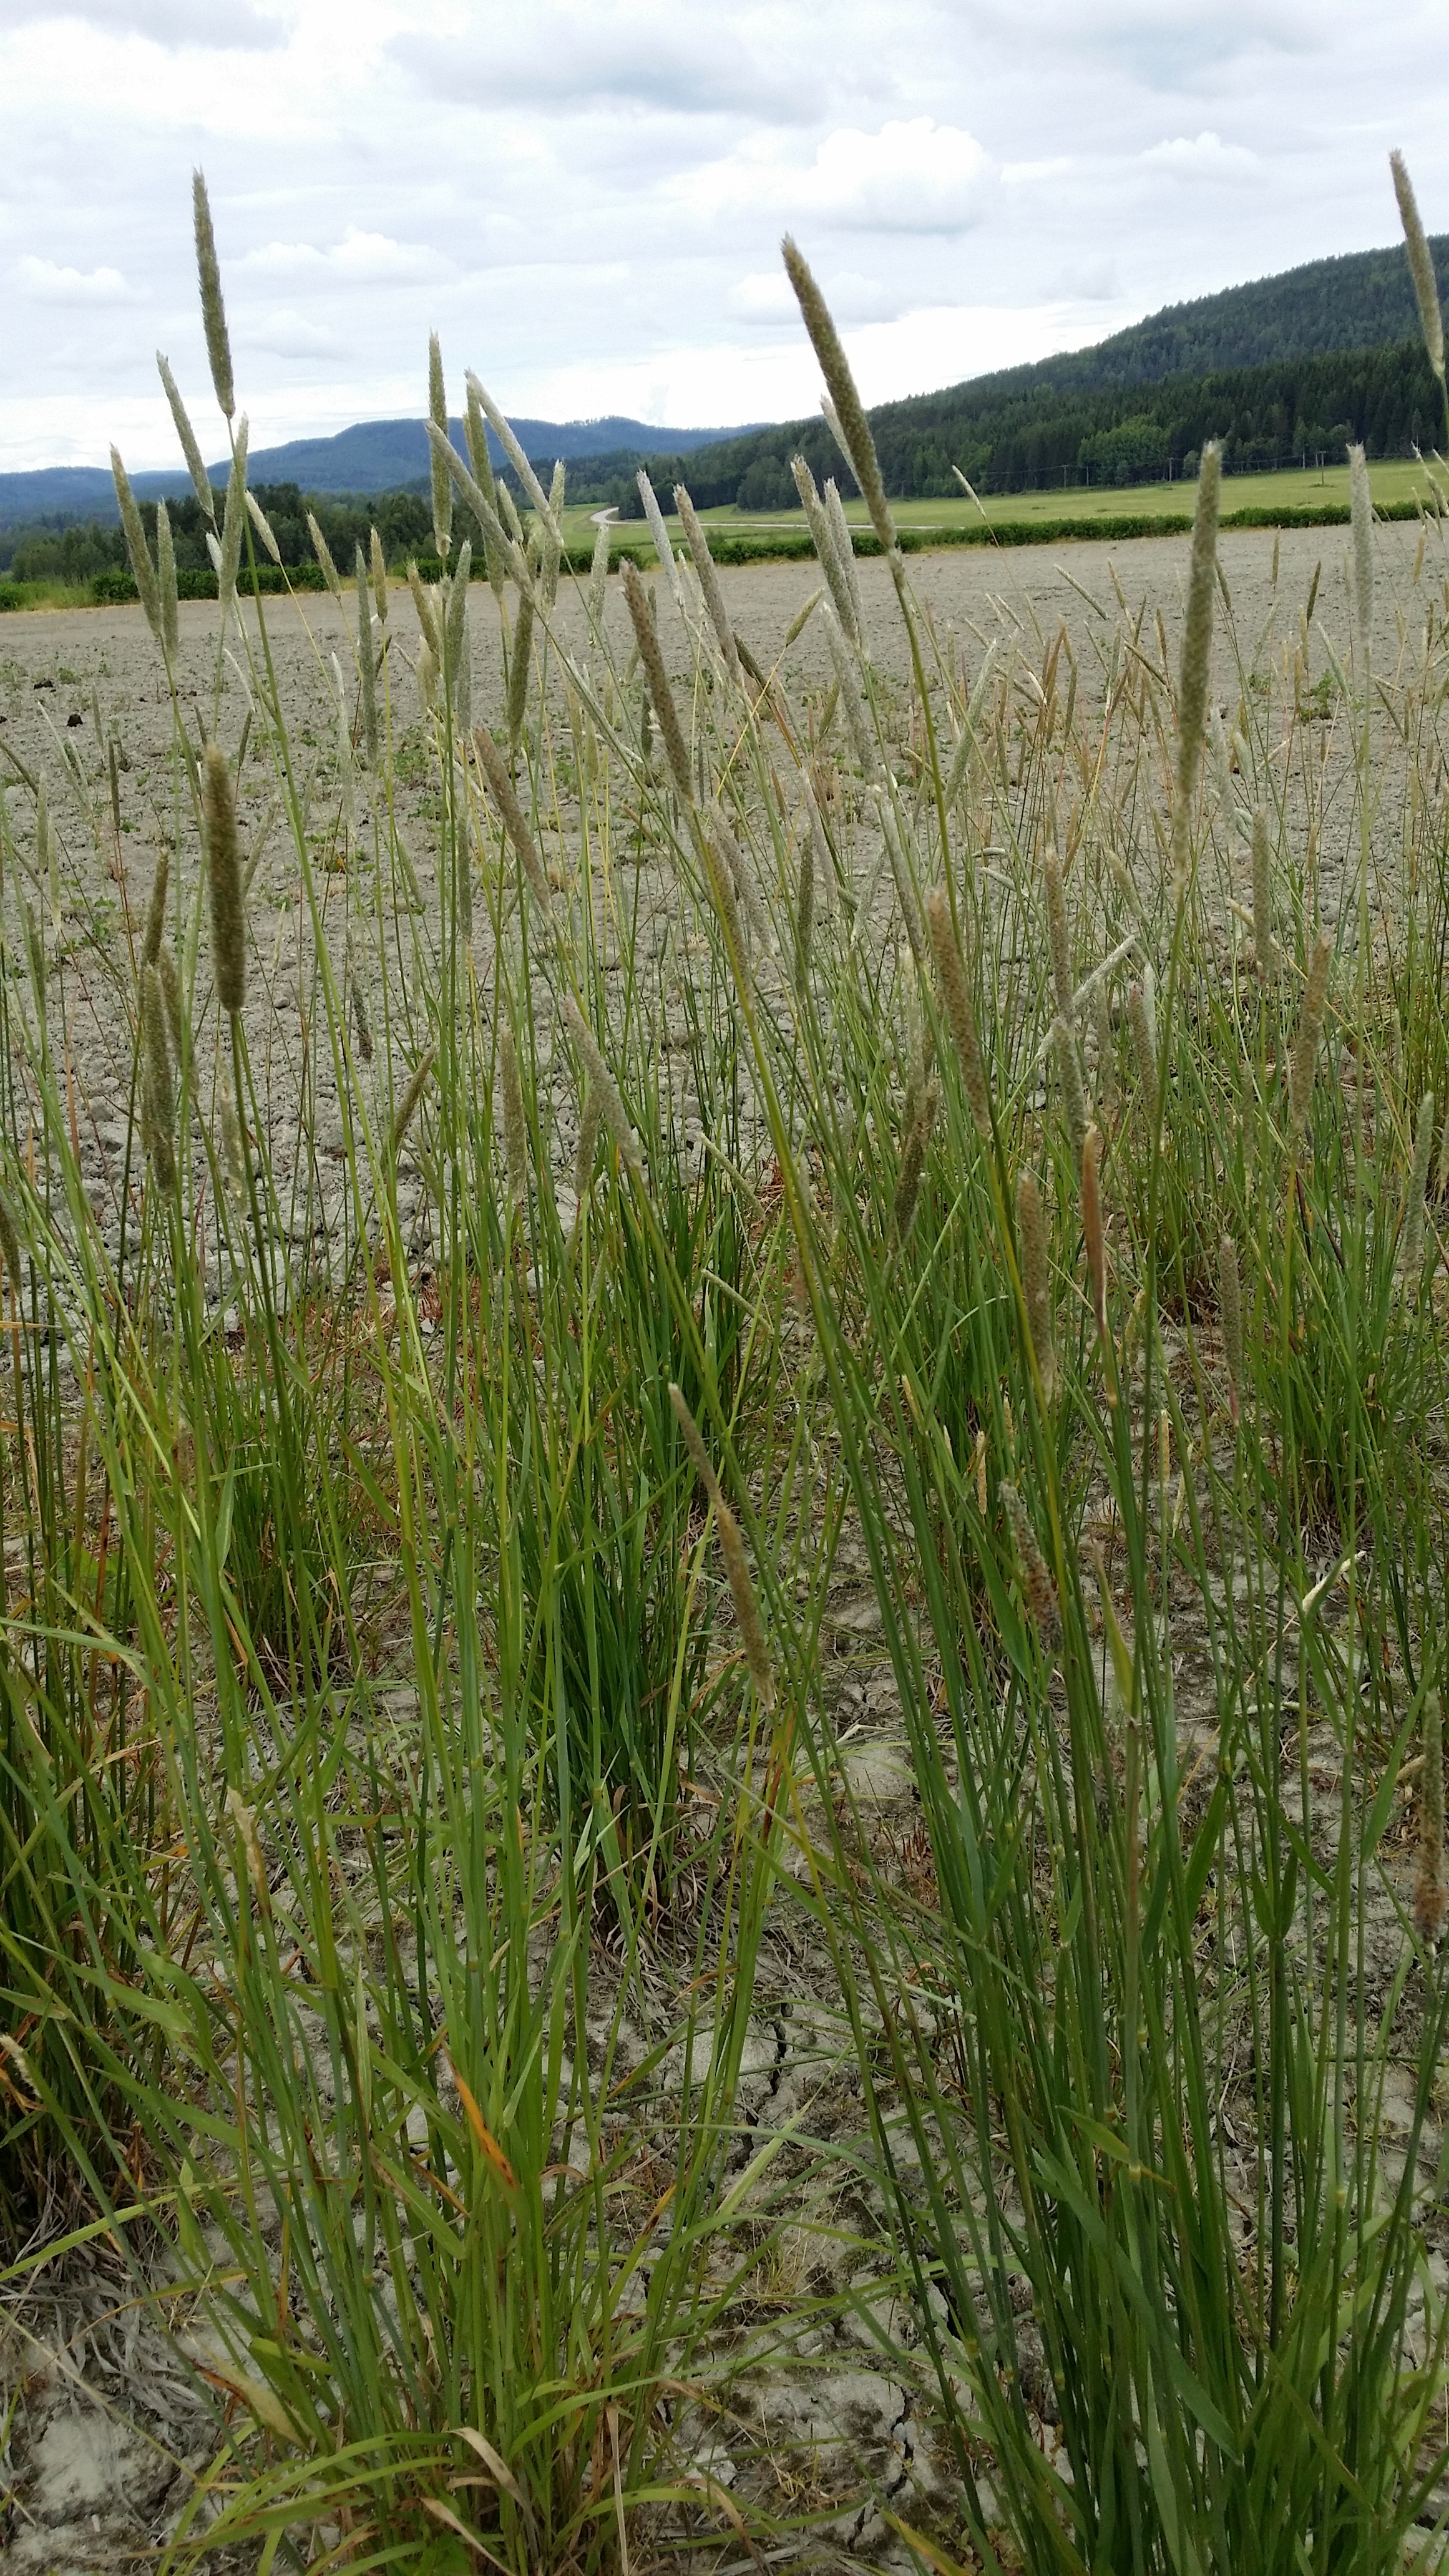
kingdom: Plantae
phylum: Tracheophyta
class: Liliopsida
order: Poales
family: Poaceae
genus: Alopecurus
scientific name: Alopecurus pratensis
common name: Meadow foxtail
